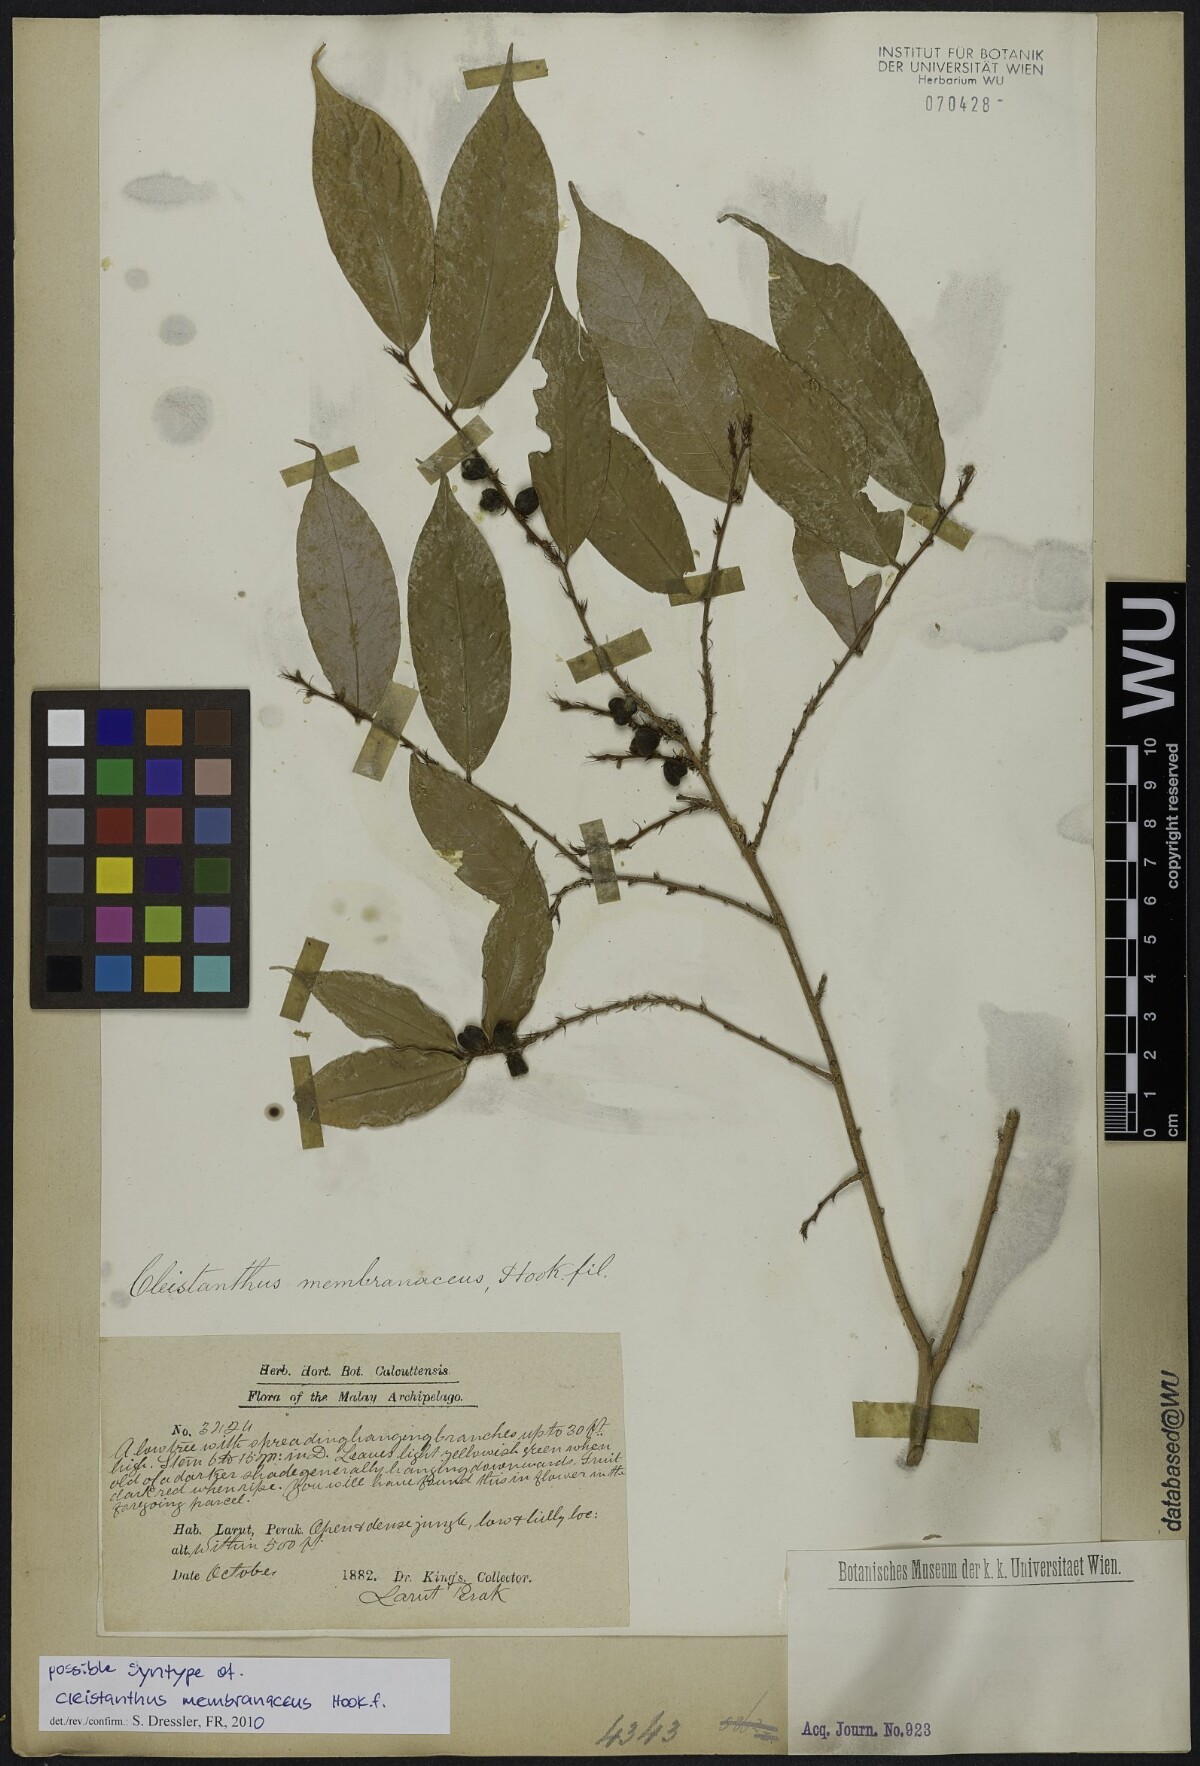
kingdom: Plantae
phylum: Tracheophyta
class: Magnoliopsida
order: Malpighiales
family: Phyllanthaceae
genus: Cleistanthus
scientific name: Cleistanthus membranaceus
